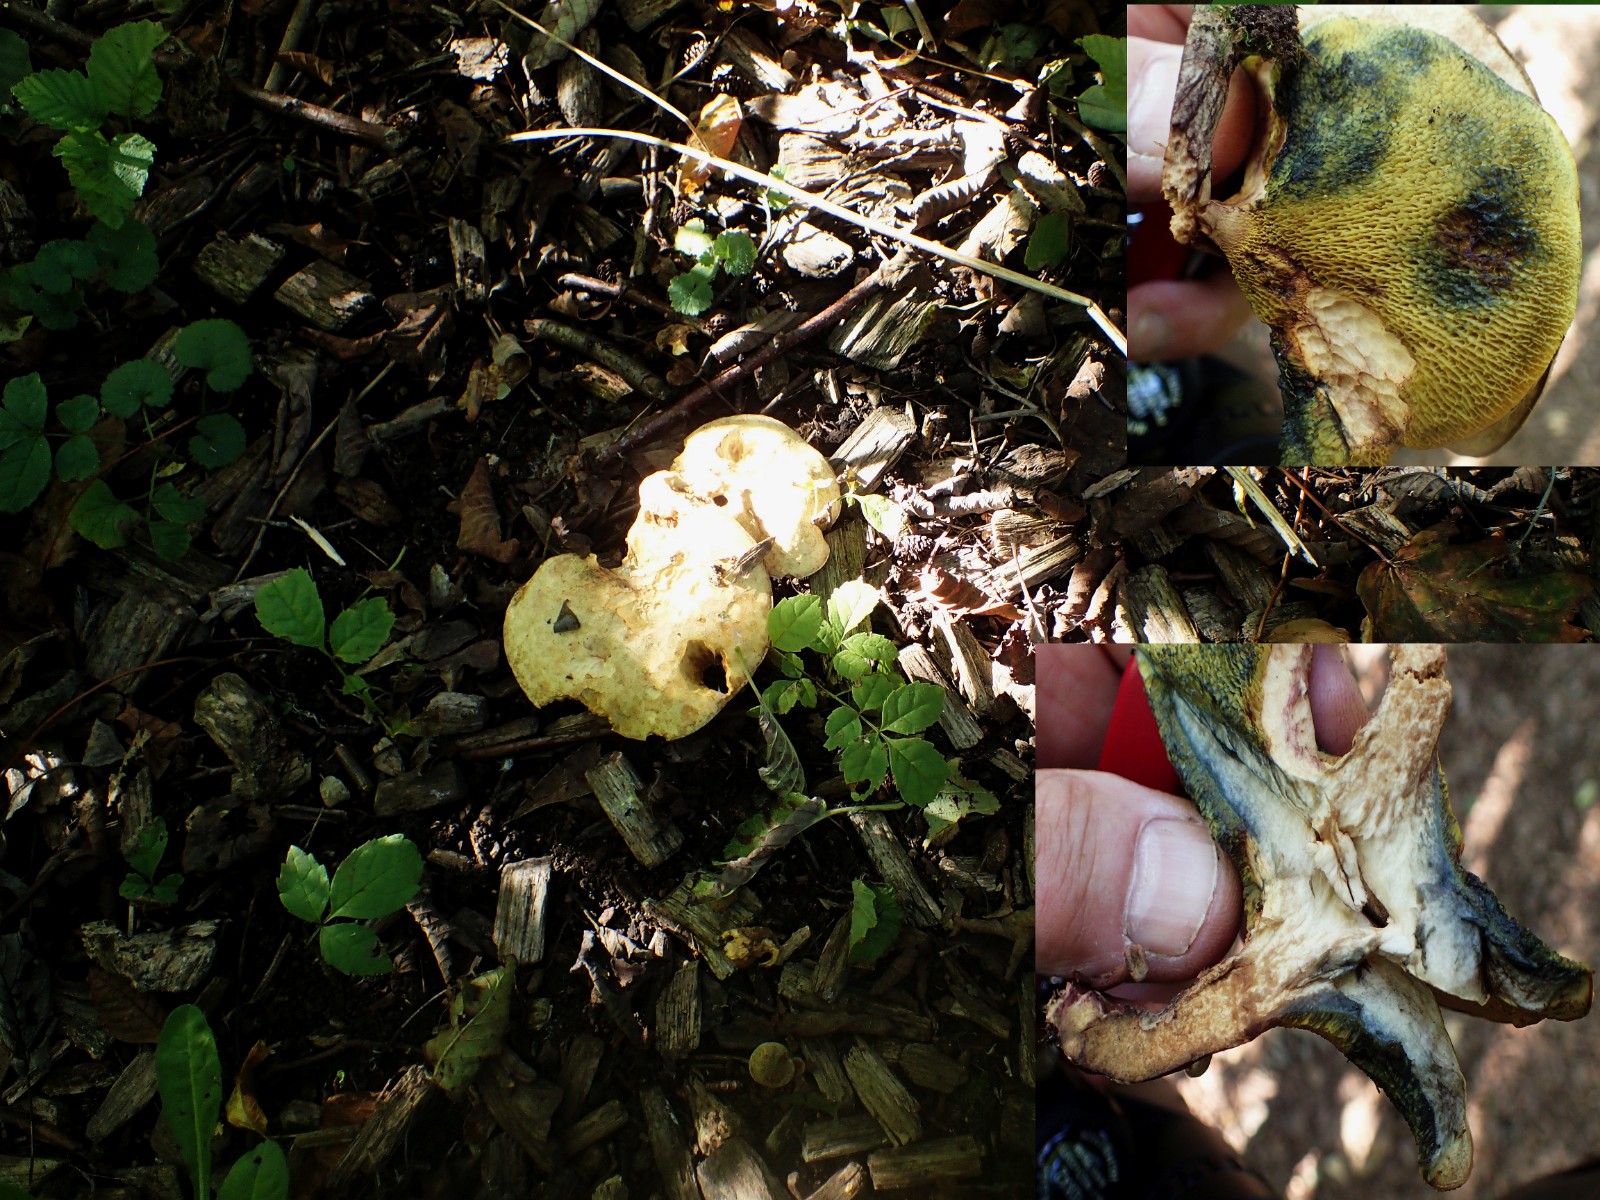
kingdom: Fungi
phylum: Basidiomycota
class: Agaricomycetes
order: Boletales
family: Paxillaceae
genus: Gyrodon
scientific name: Gyrodon lividus
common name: ellerørhat
